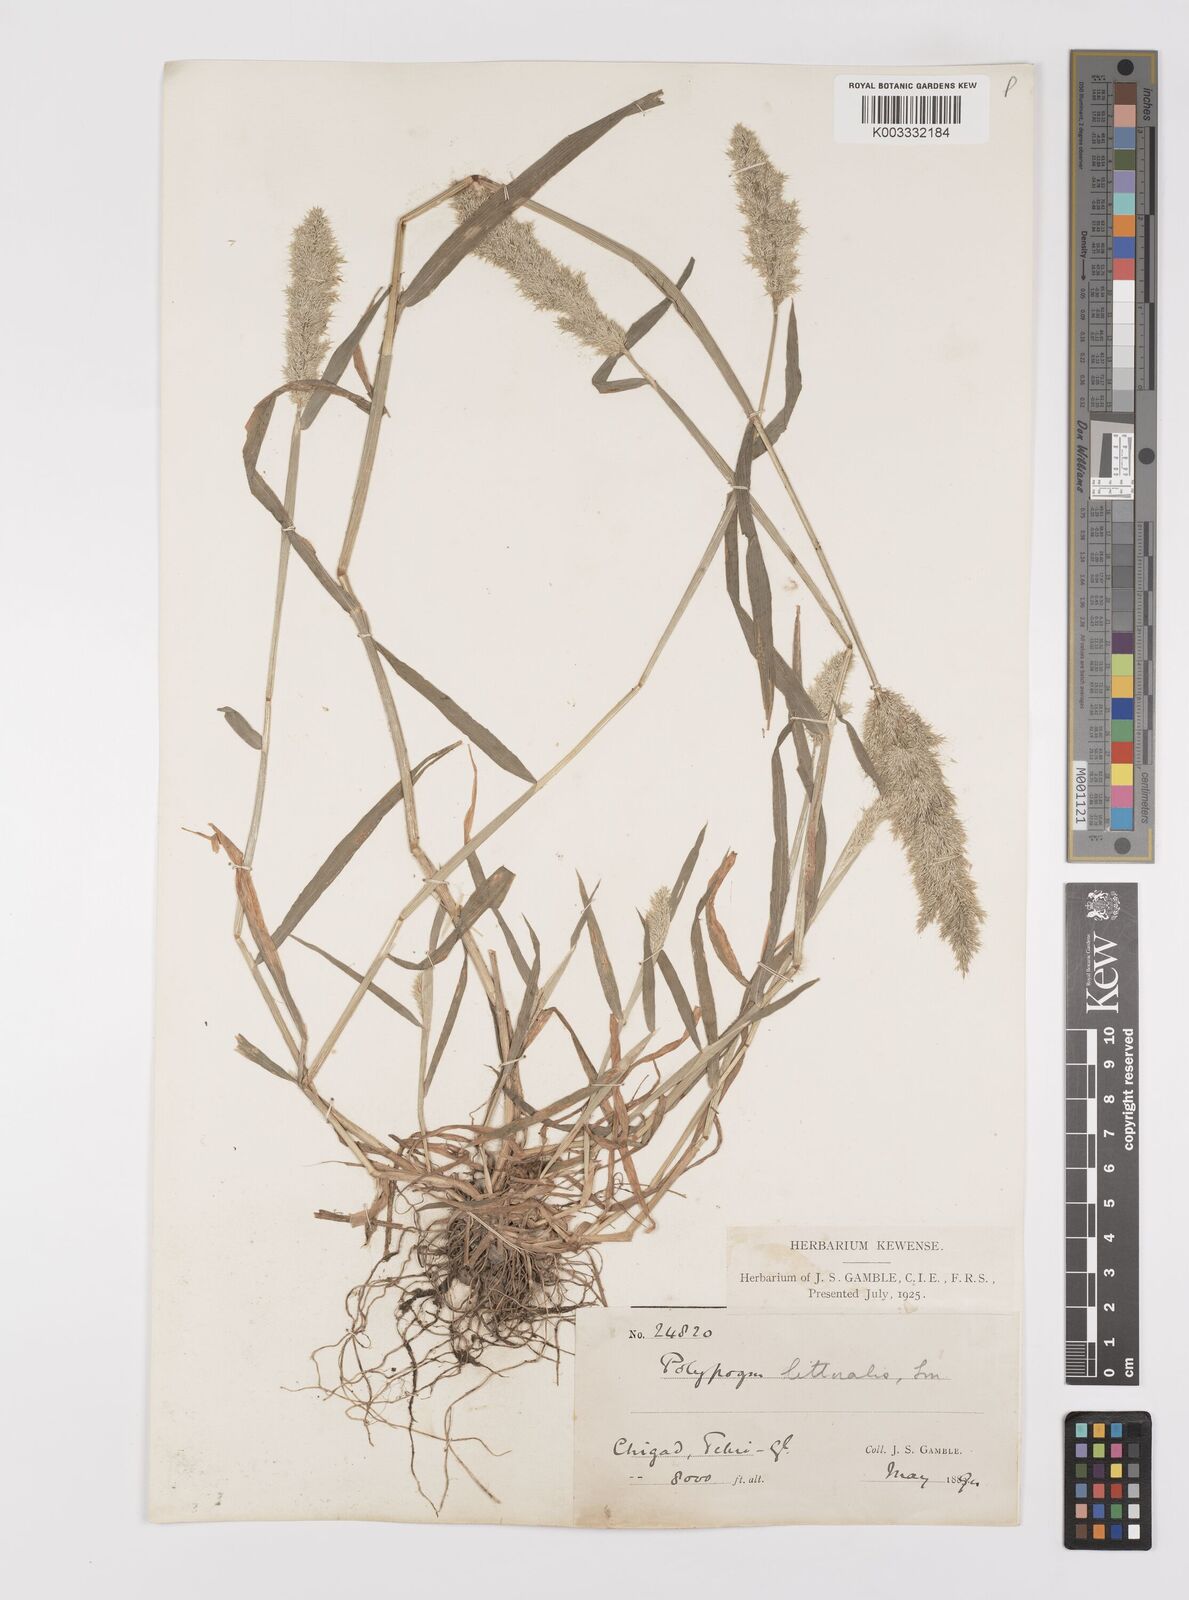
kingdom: Plantae
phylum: Tracheophyta
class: Liliopsida
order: Poales
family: Poaceae
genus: Polypogon
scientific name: Polypogon fugax
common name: Asia minor bluegrass
